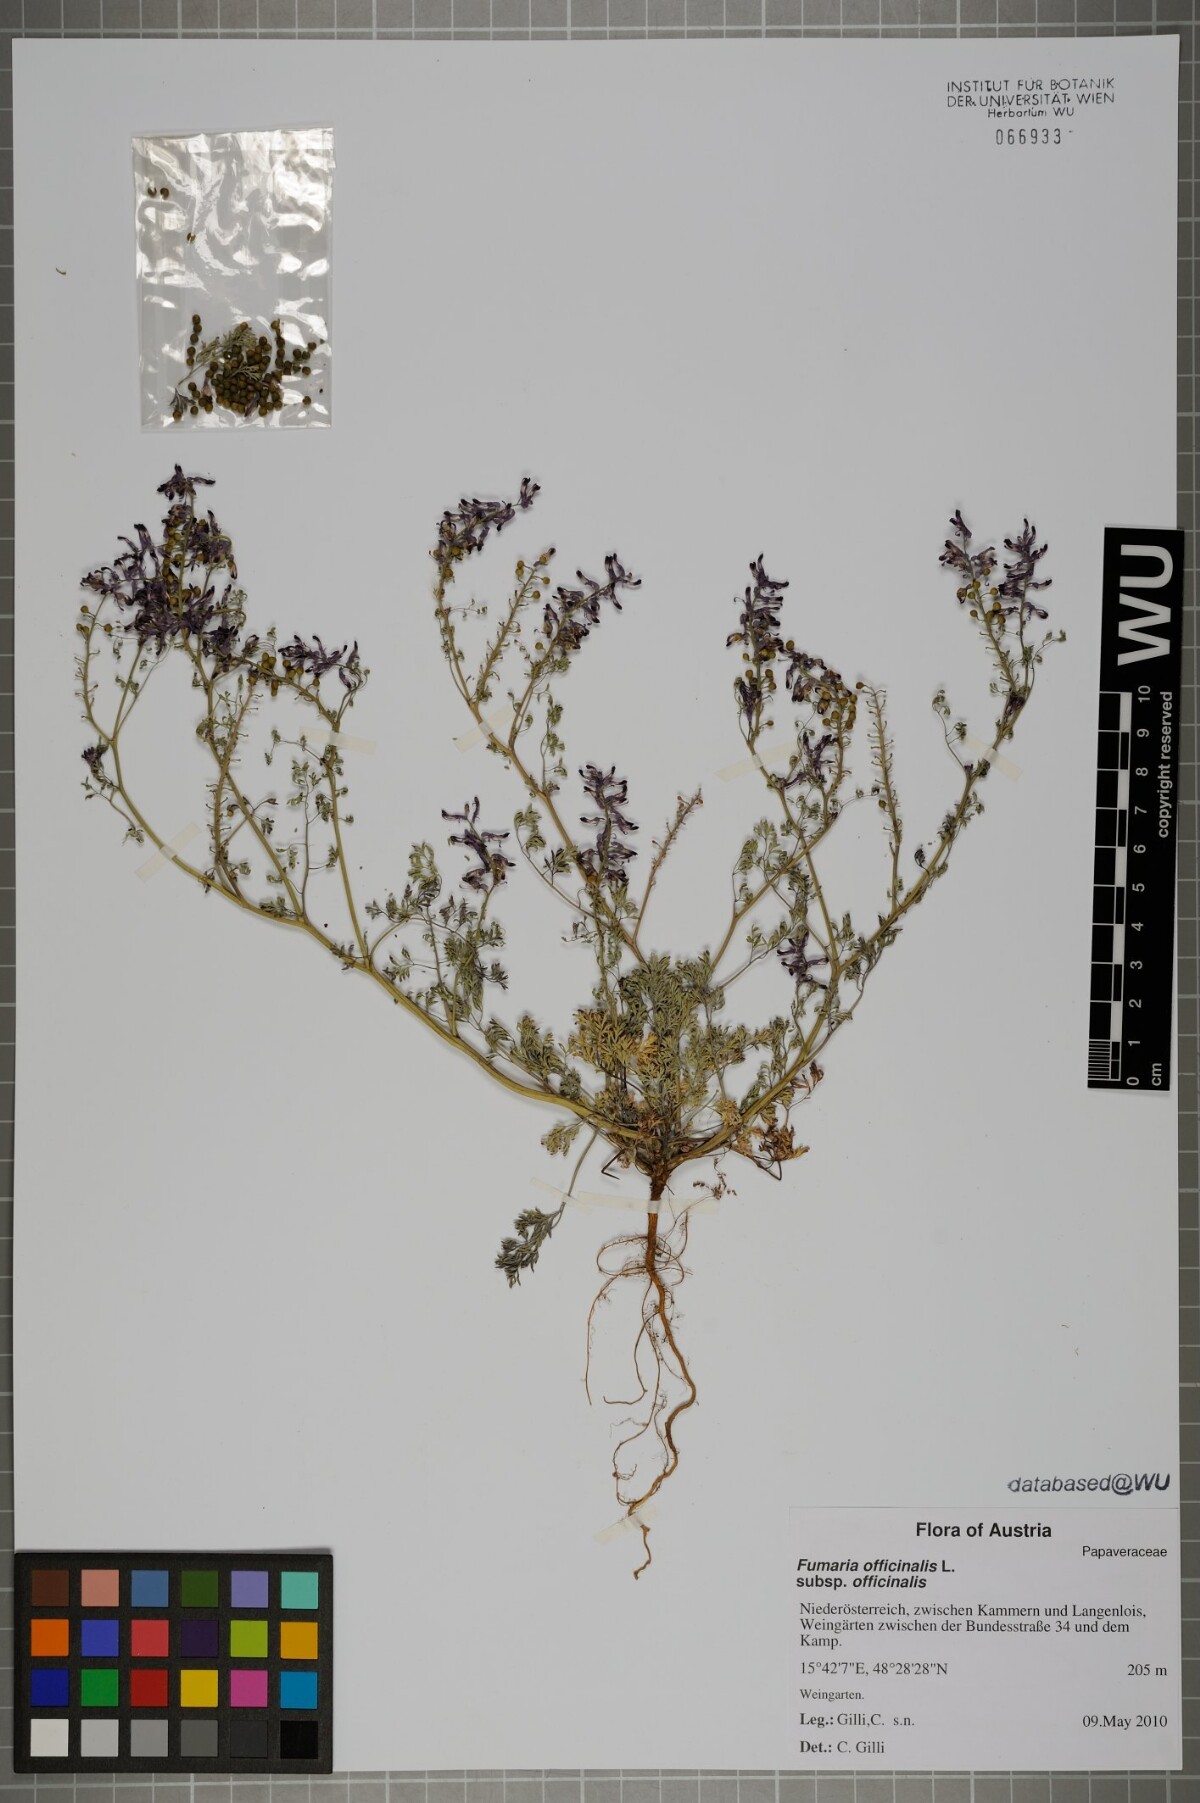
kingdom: Plantae
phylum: Tracheophyta
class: Magnoliopsida
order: Ranunculales
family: Papaveraceae
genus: Fumaria
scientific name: Fumaria officinalis
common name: Common fumitory
